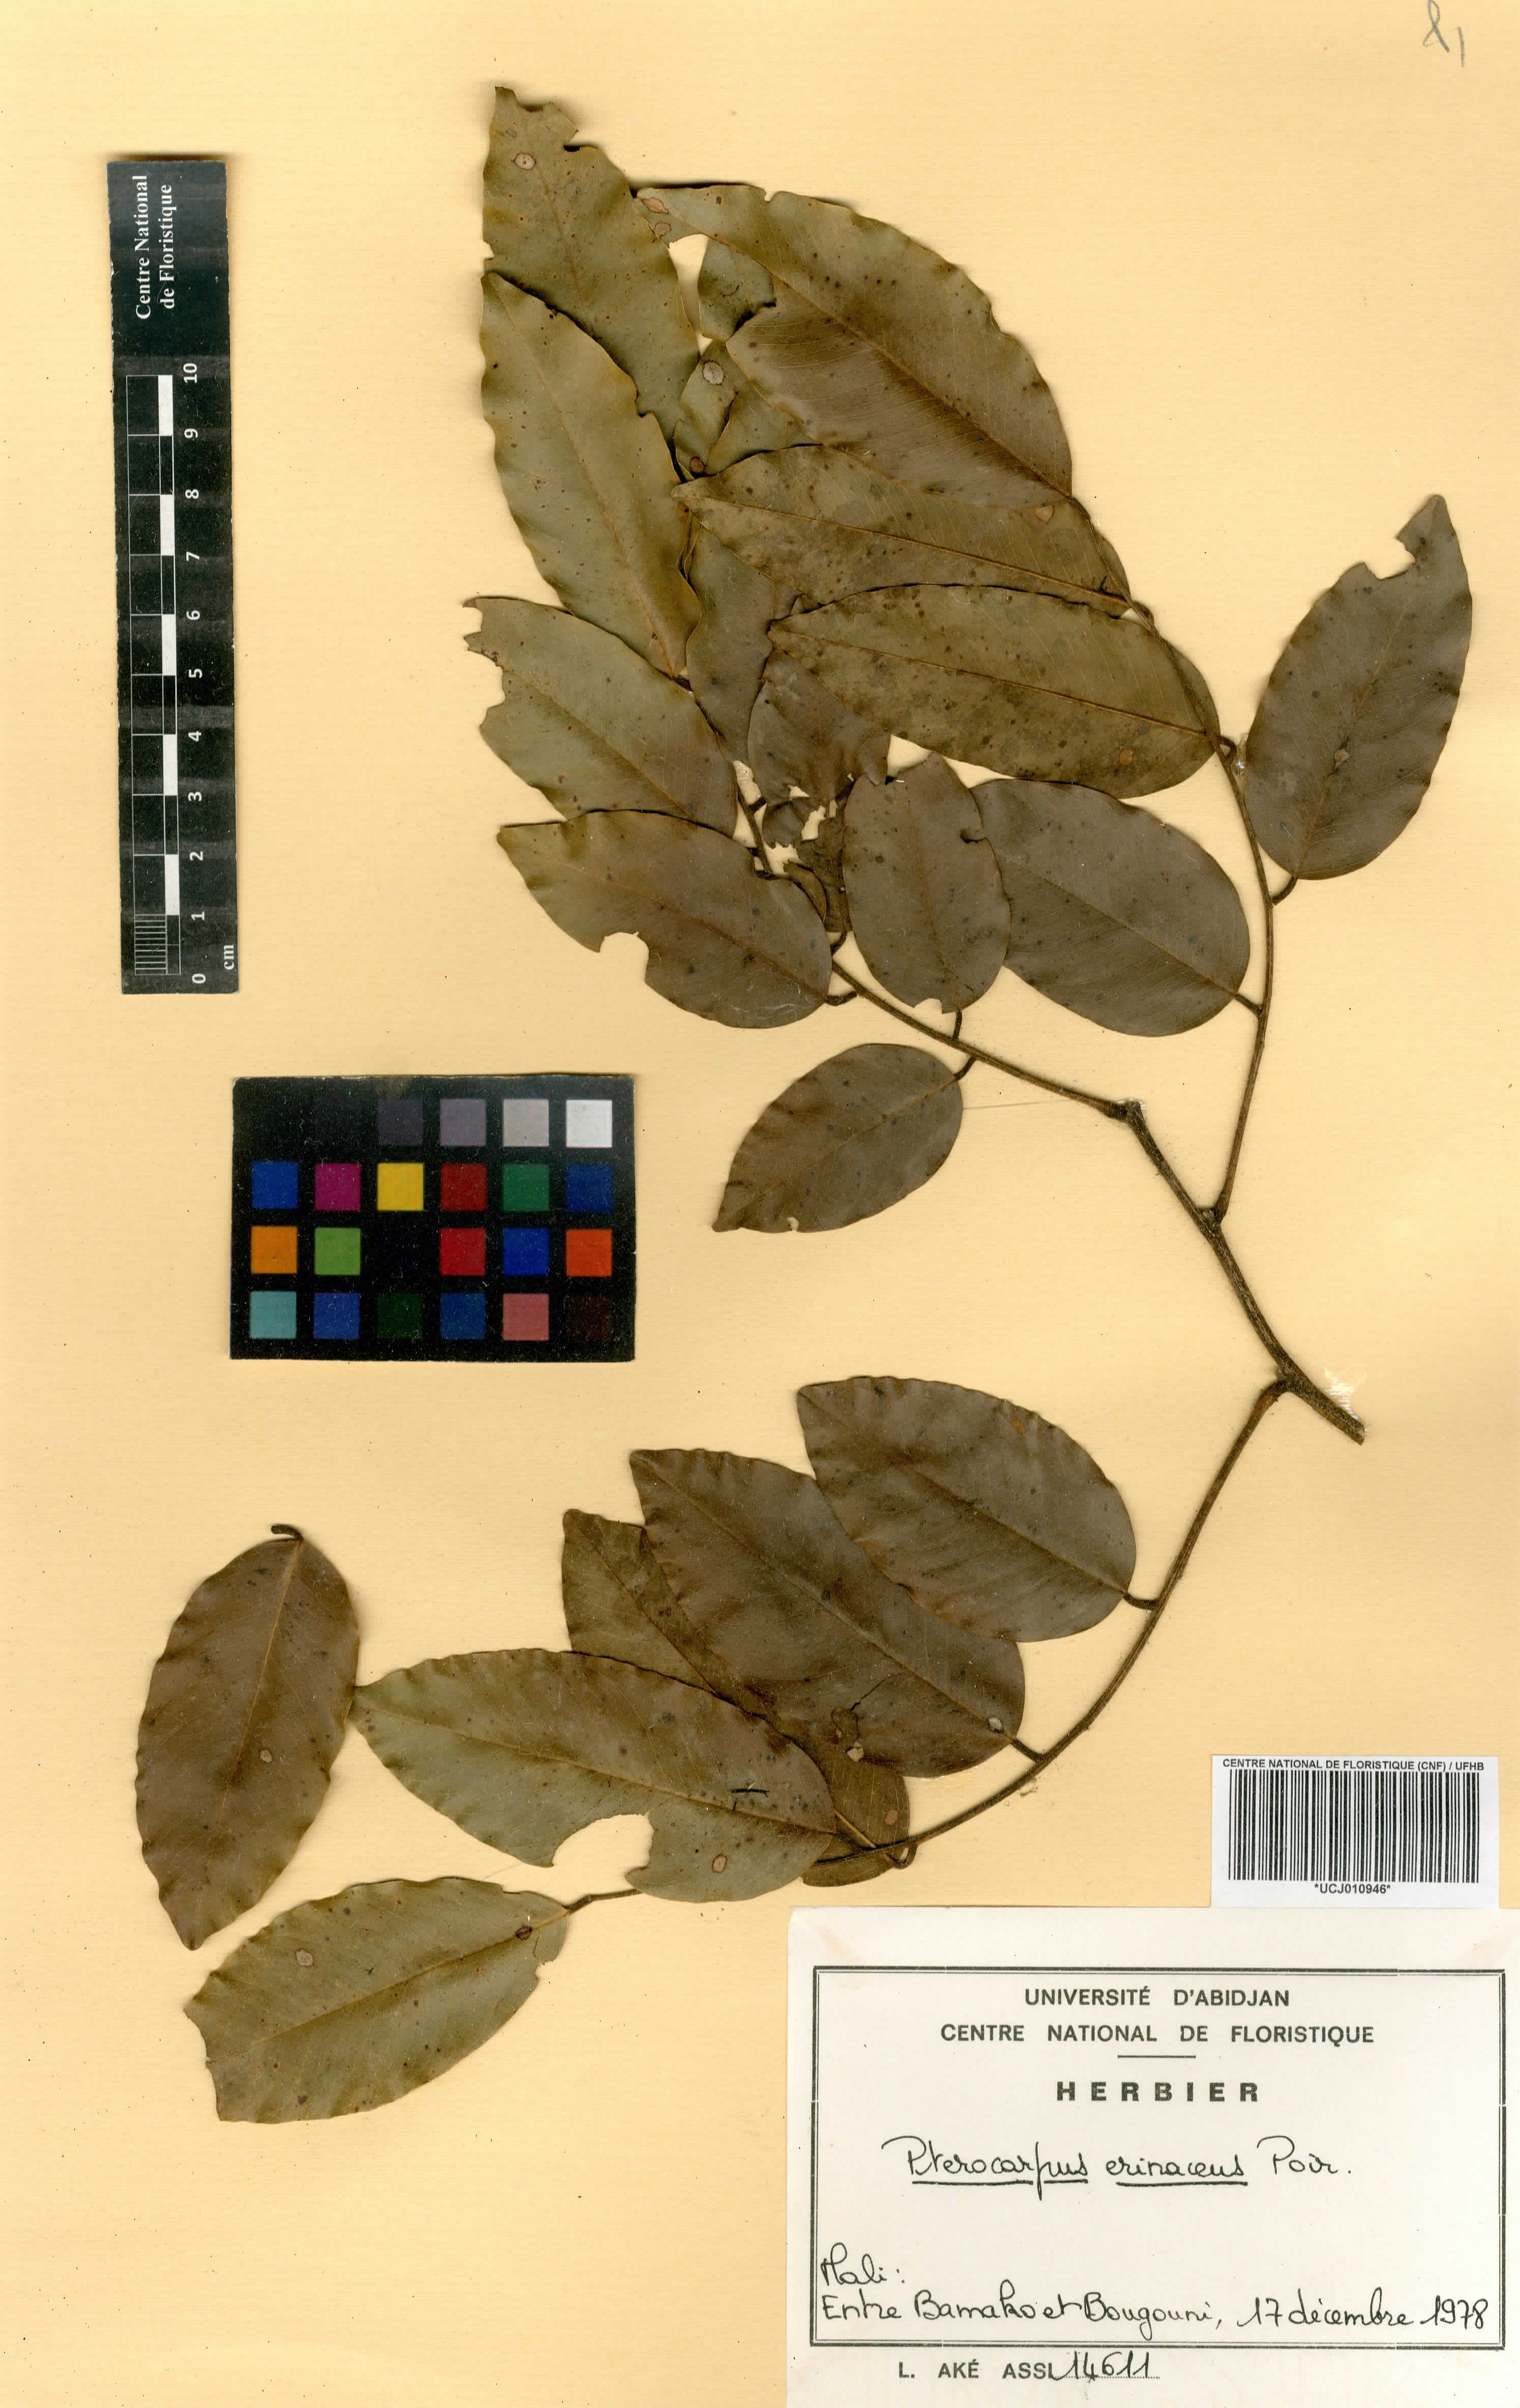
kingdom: Plantae
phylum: Tracheophyta
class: Magnoliopsida
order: Fabales
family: Fabaceae
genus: Pterocarpus
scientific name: Pterocarpus erinaceus
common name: African rosewood
